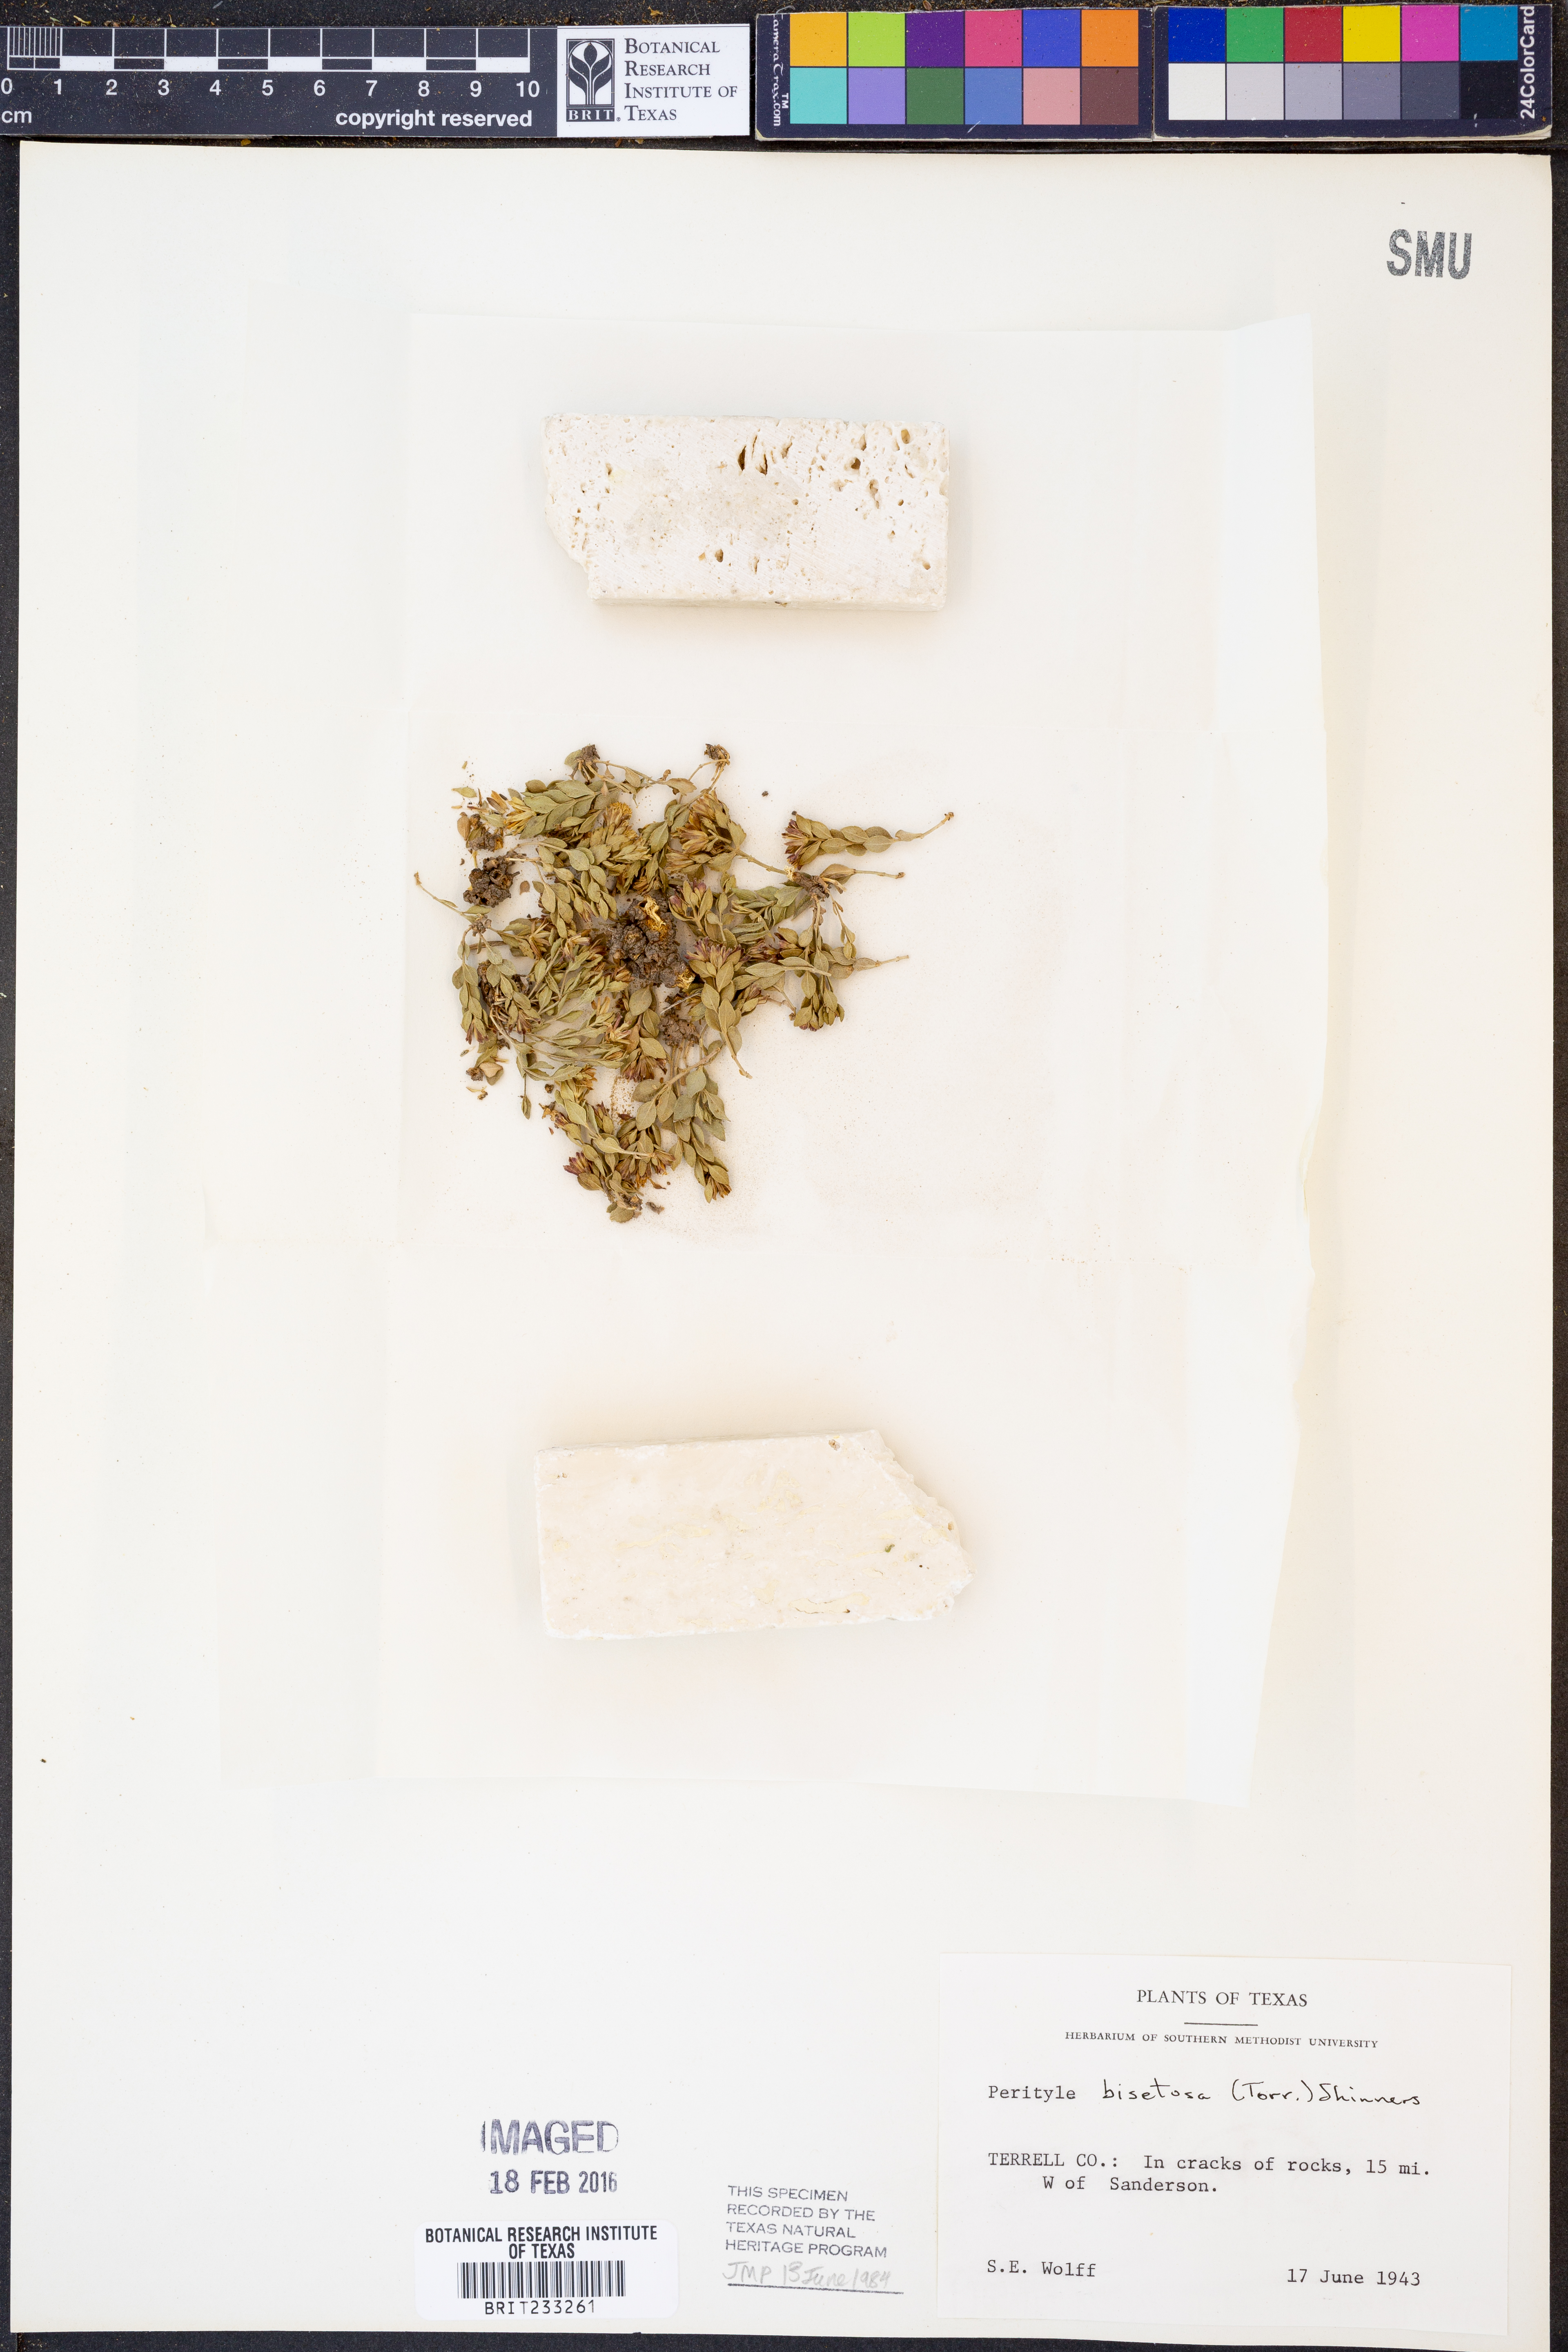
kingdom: Plantae
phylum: Tracheophyta
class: Magnoliopsida
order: Asterales
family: Asteraceae
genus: Laphamia
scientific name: Laphamia bisetosa
